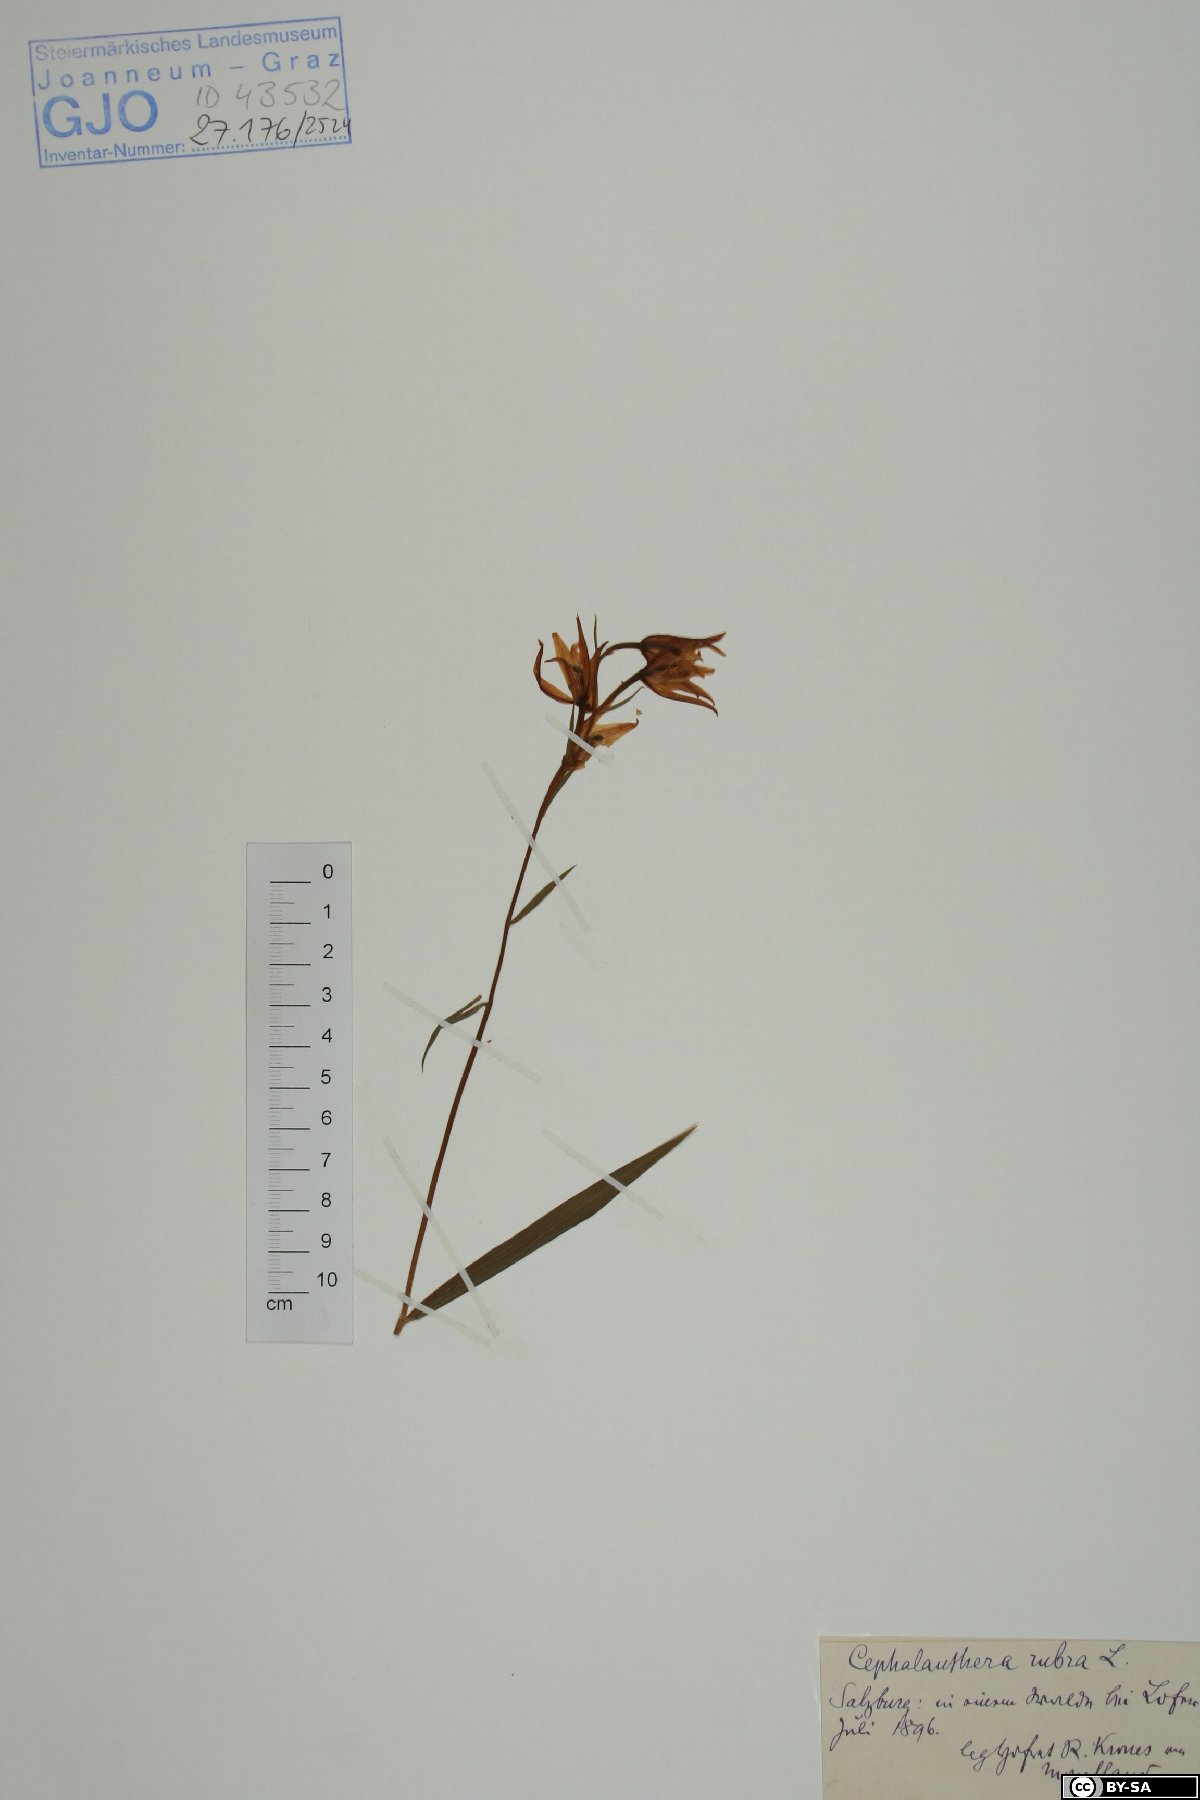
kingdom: Plantae
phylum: Tracheophyta
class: Liliopsida
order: Asparagales
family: Orchidaceae
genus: Cephalanthera
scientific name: Cephalanthera rubra
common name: Red helleborine
